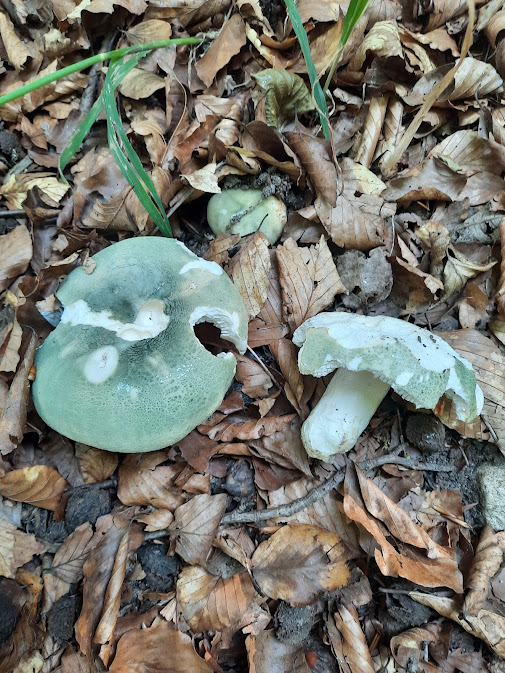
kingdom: Fungi
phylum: Basidiomycota
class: Agaricomycetes
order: Russulales
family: Russulaceae
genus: Russula
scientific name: Russula virescens
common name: spanskgrøn skørhat
